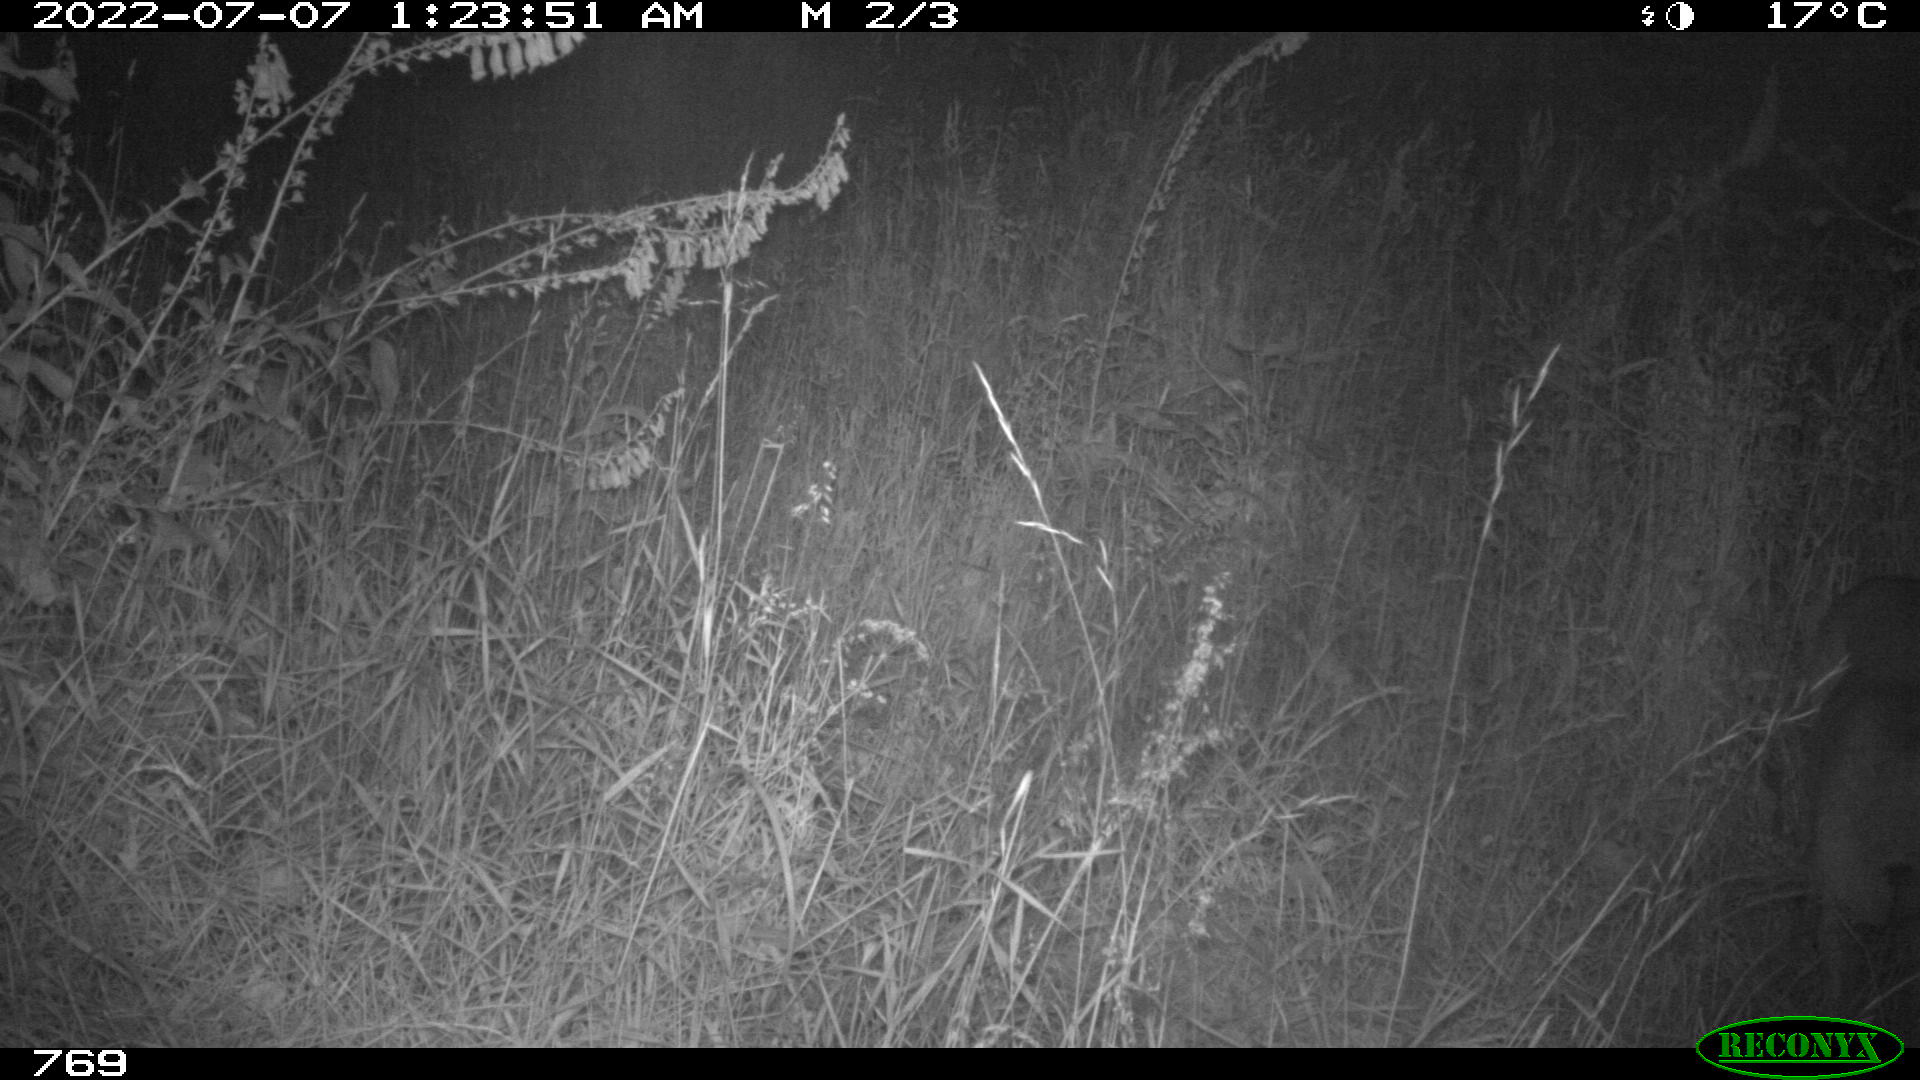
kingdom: Animalia
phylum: Chordata
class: Mammalia
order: Artiodactyla
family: Cervidae
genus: Capreolus
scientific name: Capreolus capreolus
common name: Western roe deer
